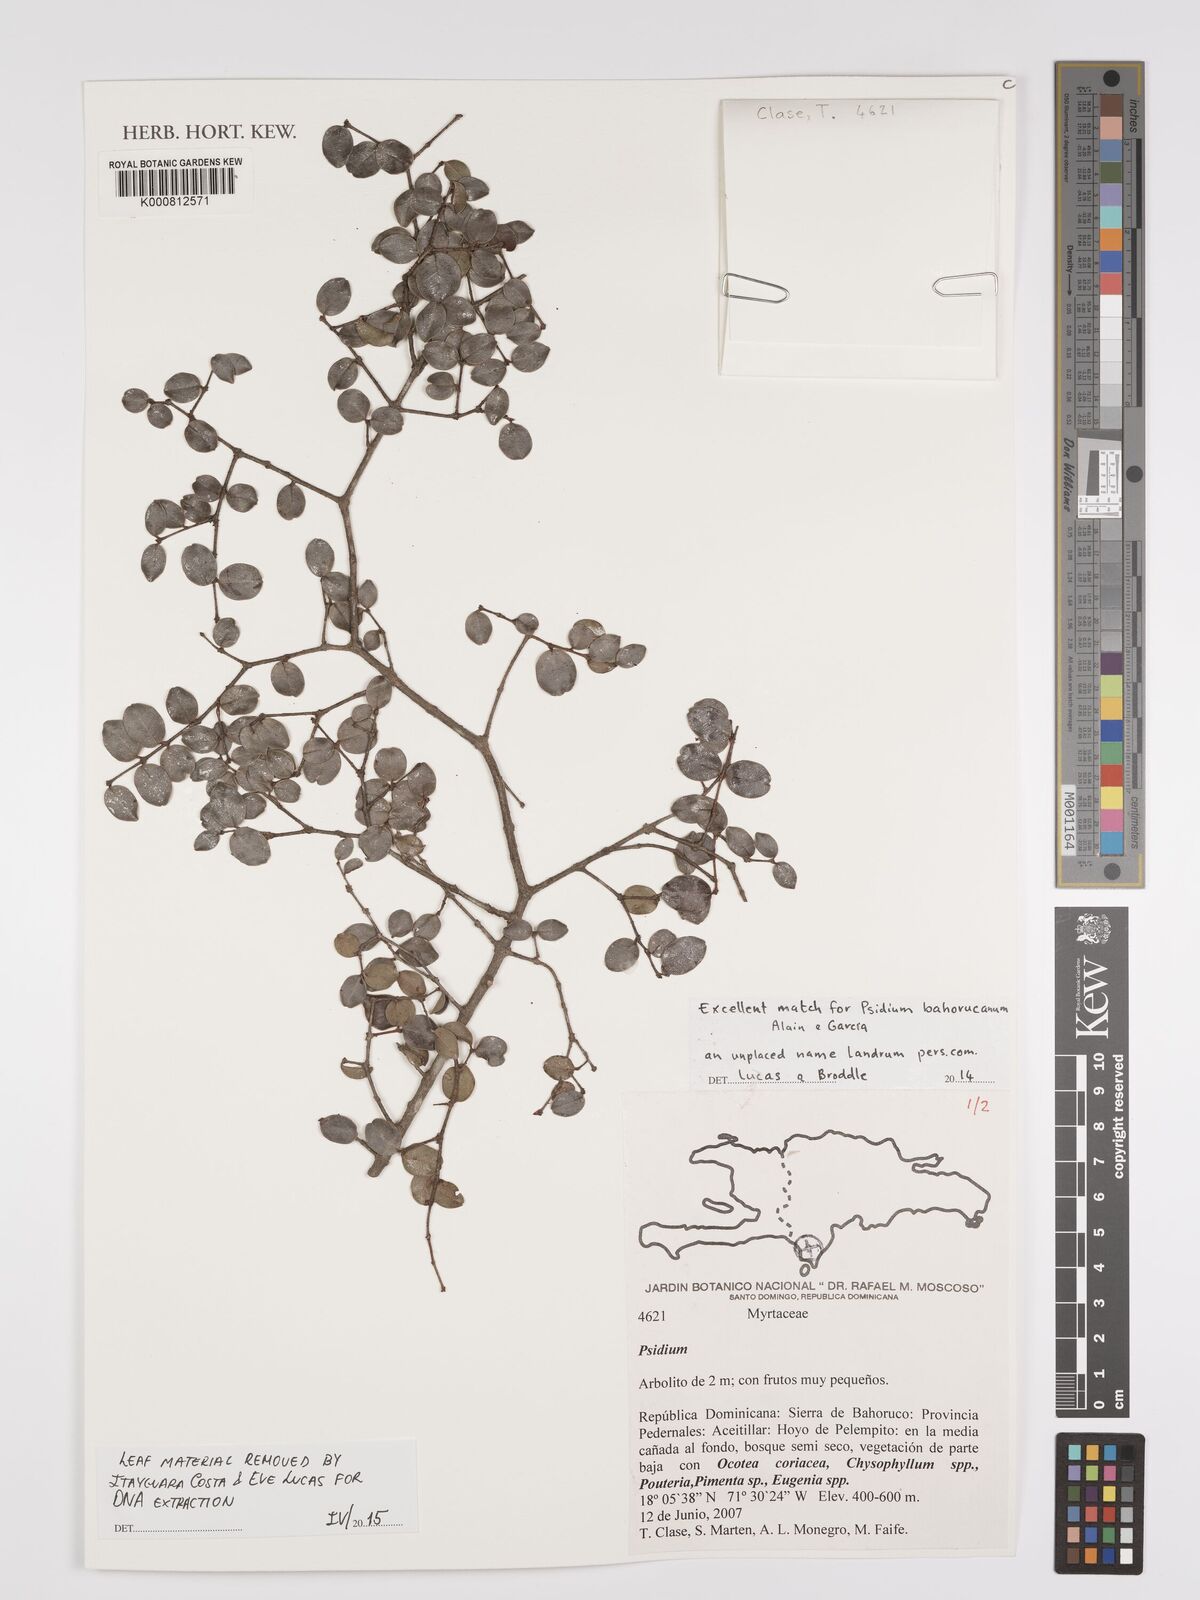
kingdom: Plantae
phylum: Tracheophyta
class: Magnoliopsida
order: Myrtales
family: Myrtaceae
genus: Psidium
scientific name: Psidium
